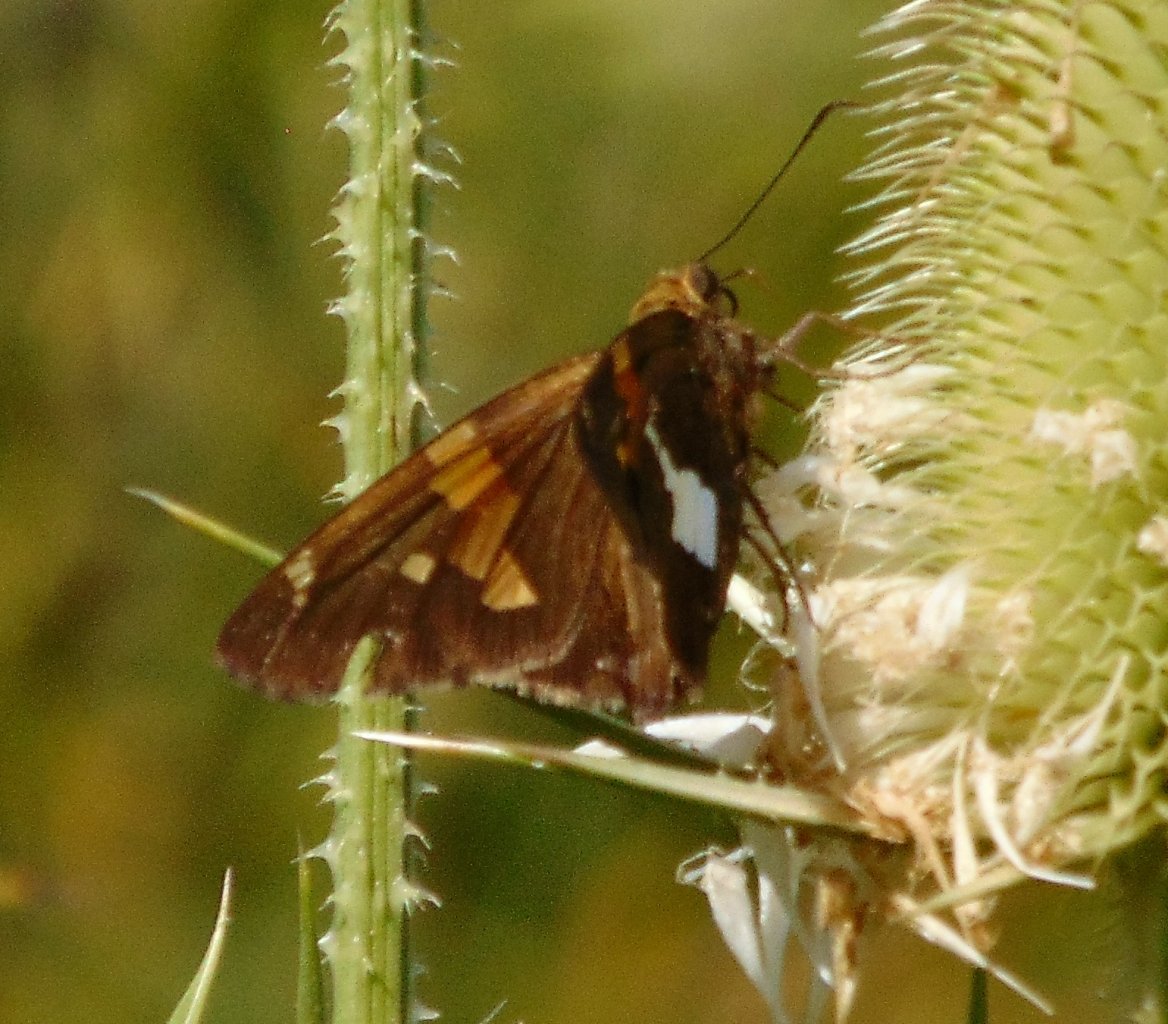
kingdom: Animalia
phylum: Arthropoda
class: Insecta
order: Lepidoptera
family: Hesperiidae
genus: Epargyreus
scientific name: Epargyreus clarus
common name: Silver-spotted Skipper
